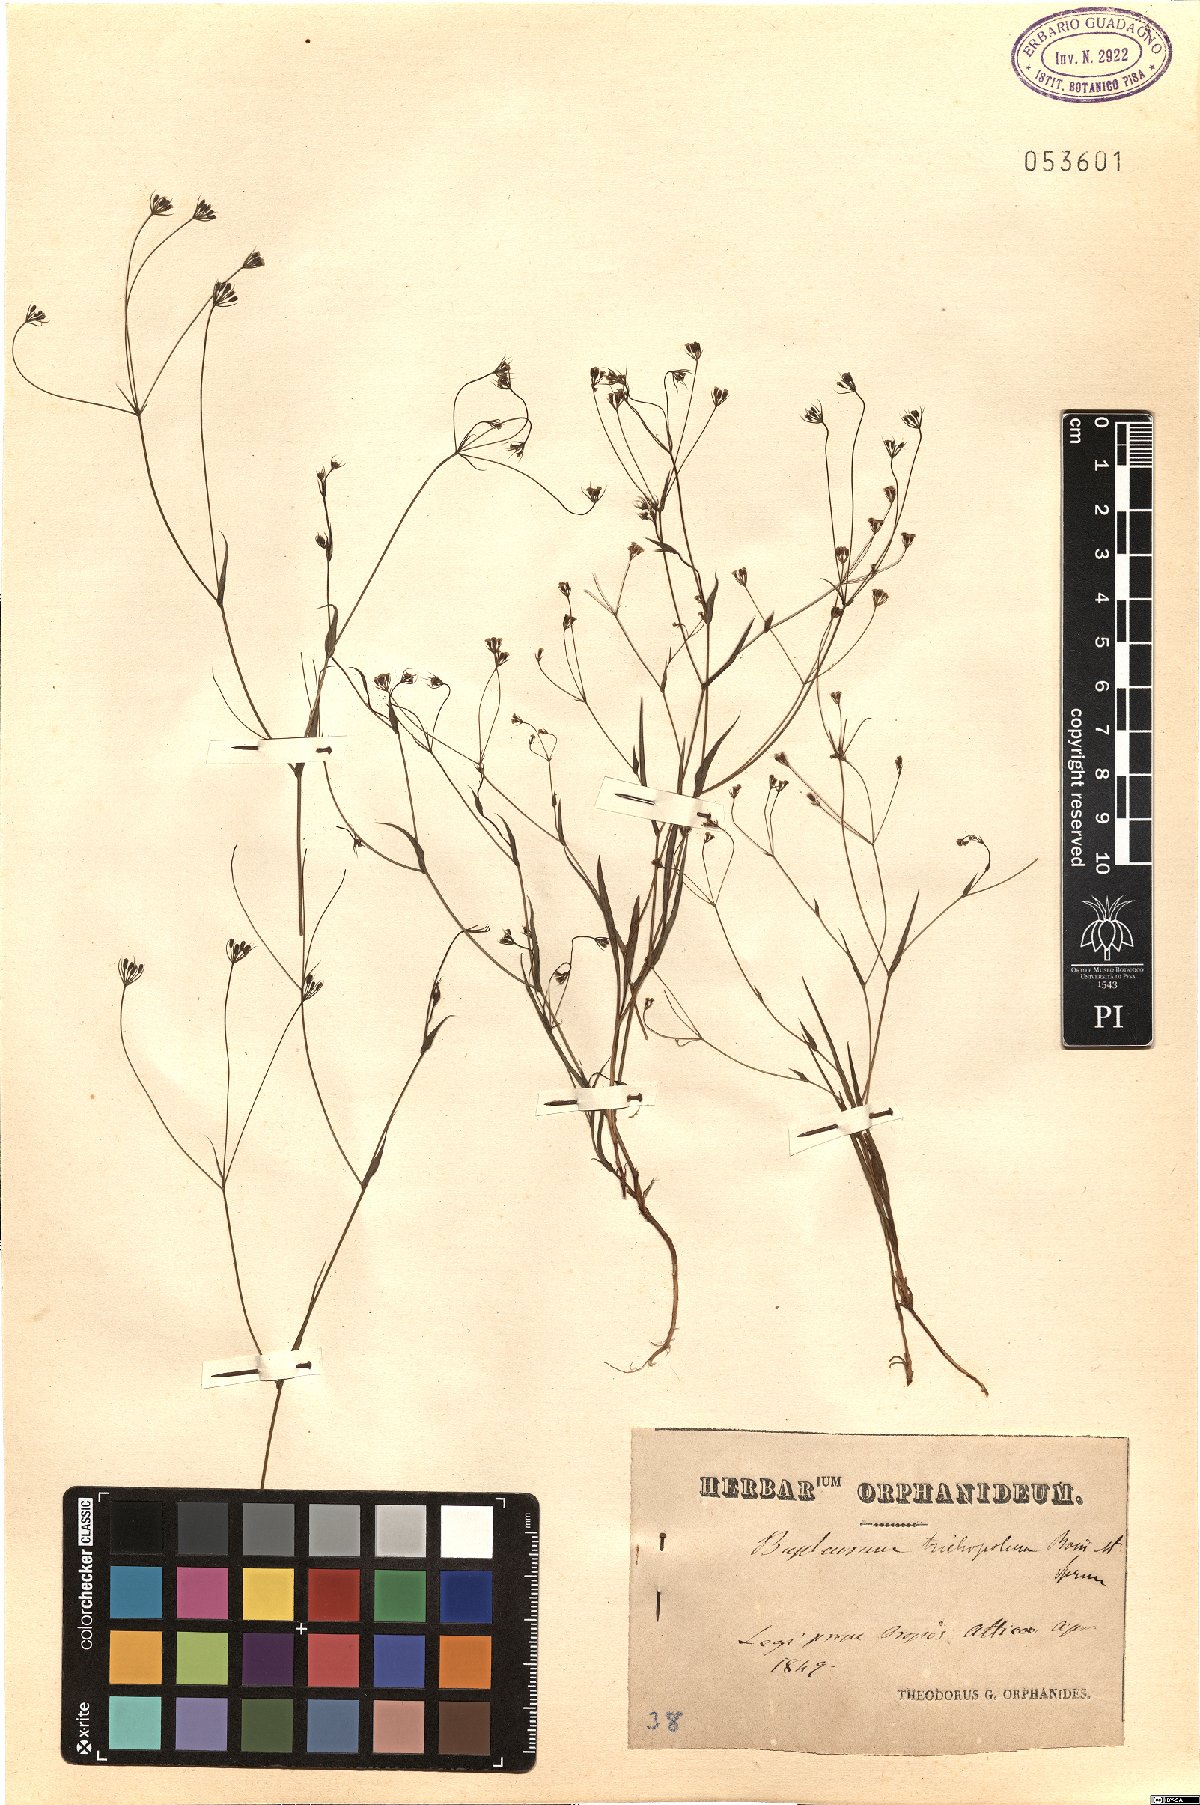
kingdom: Plantae
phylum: Tracheophyta
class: Magnoliopsida
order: Apiales
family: Apiaceae
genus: Bupleurum
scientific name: Bupleurum trichopodum
